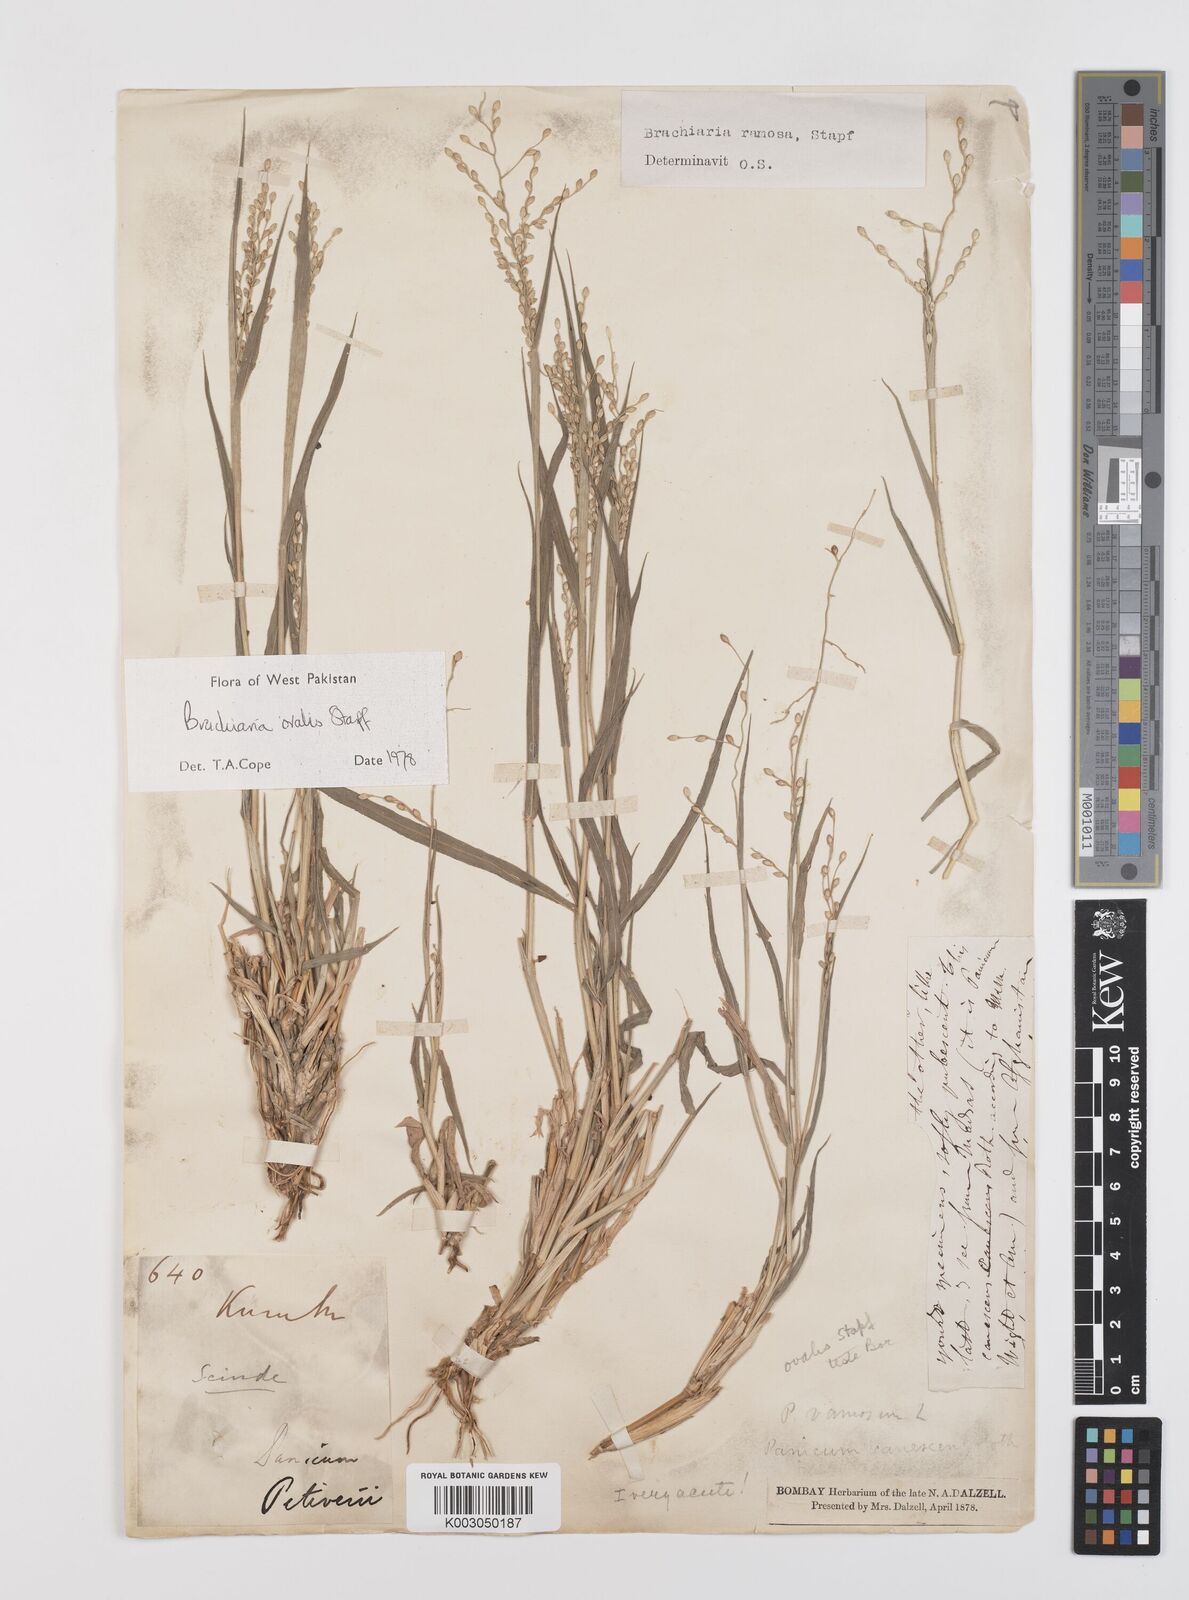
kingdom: Plantae
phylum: Tracheophyta
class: Liliopsida
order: Poales
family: Poaceae
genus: Urochloa
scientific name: Urochloa ovalis
